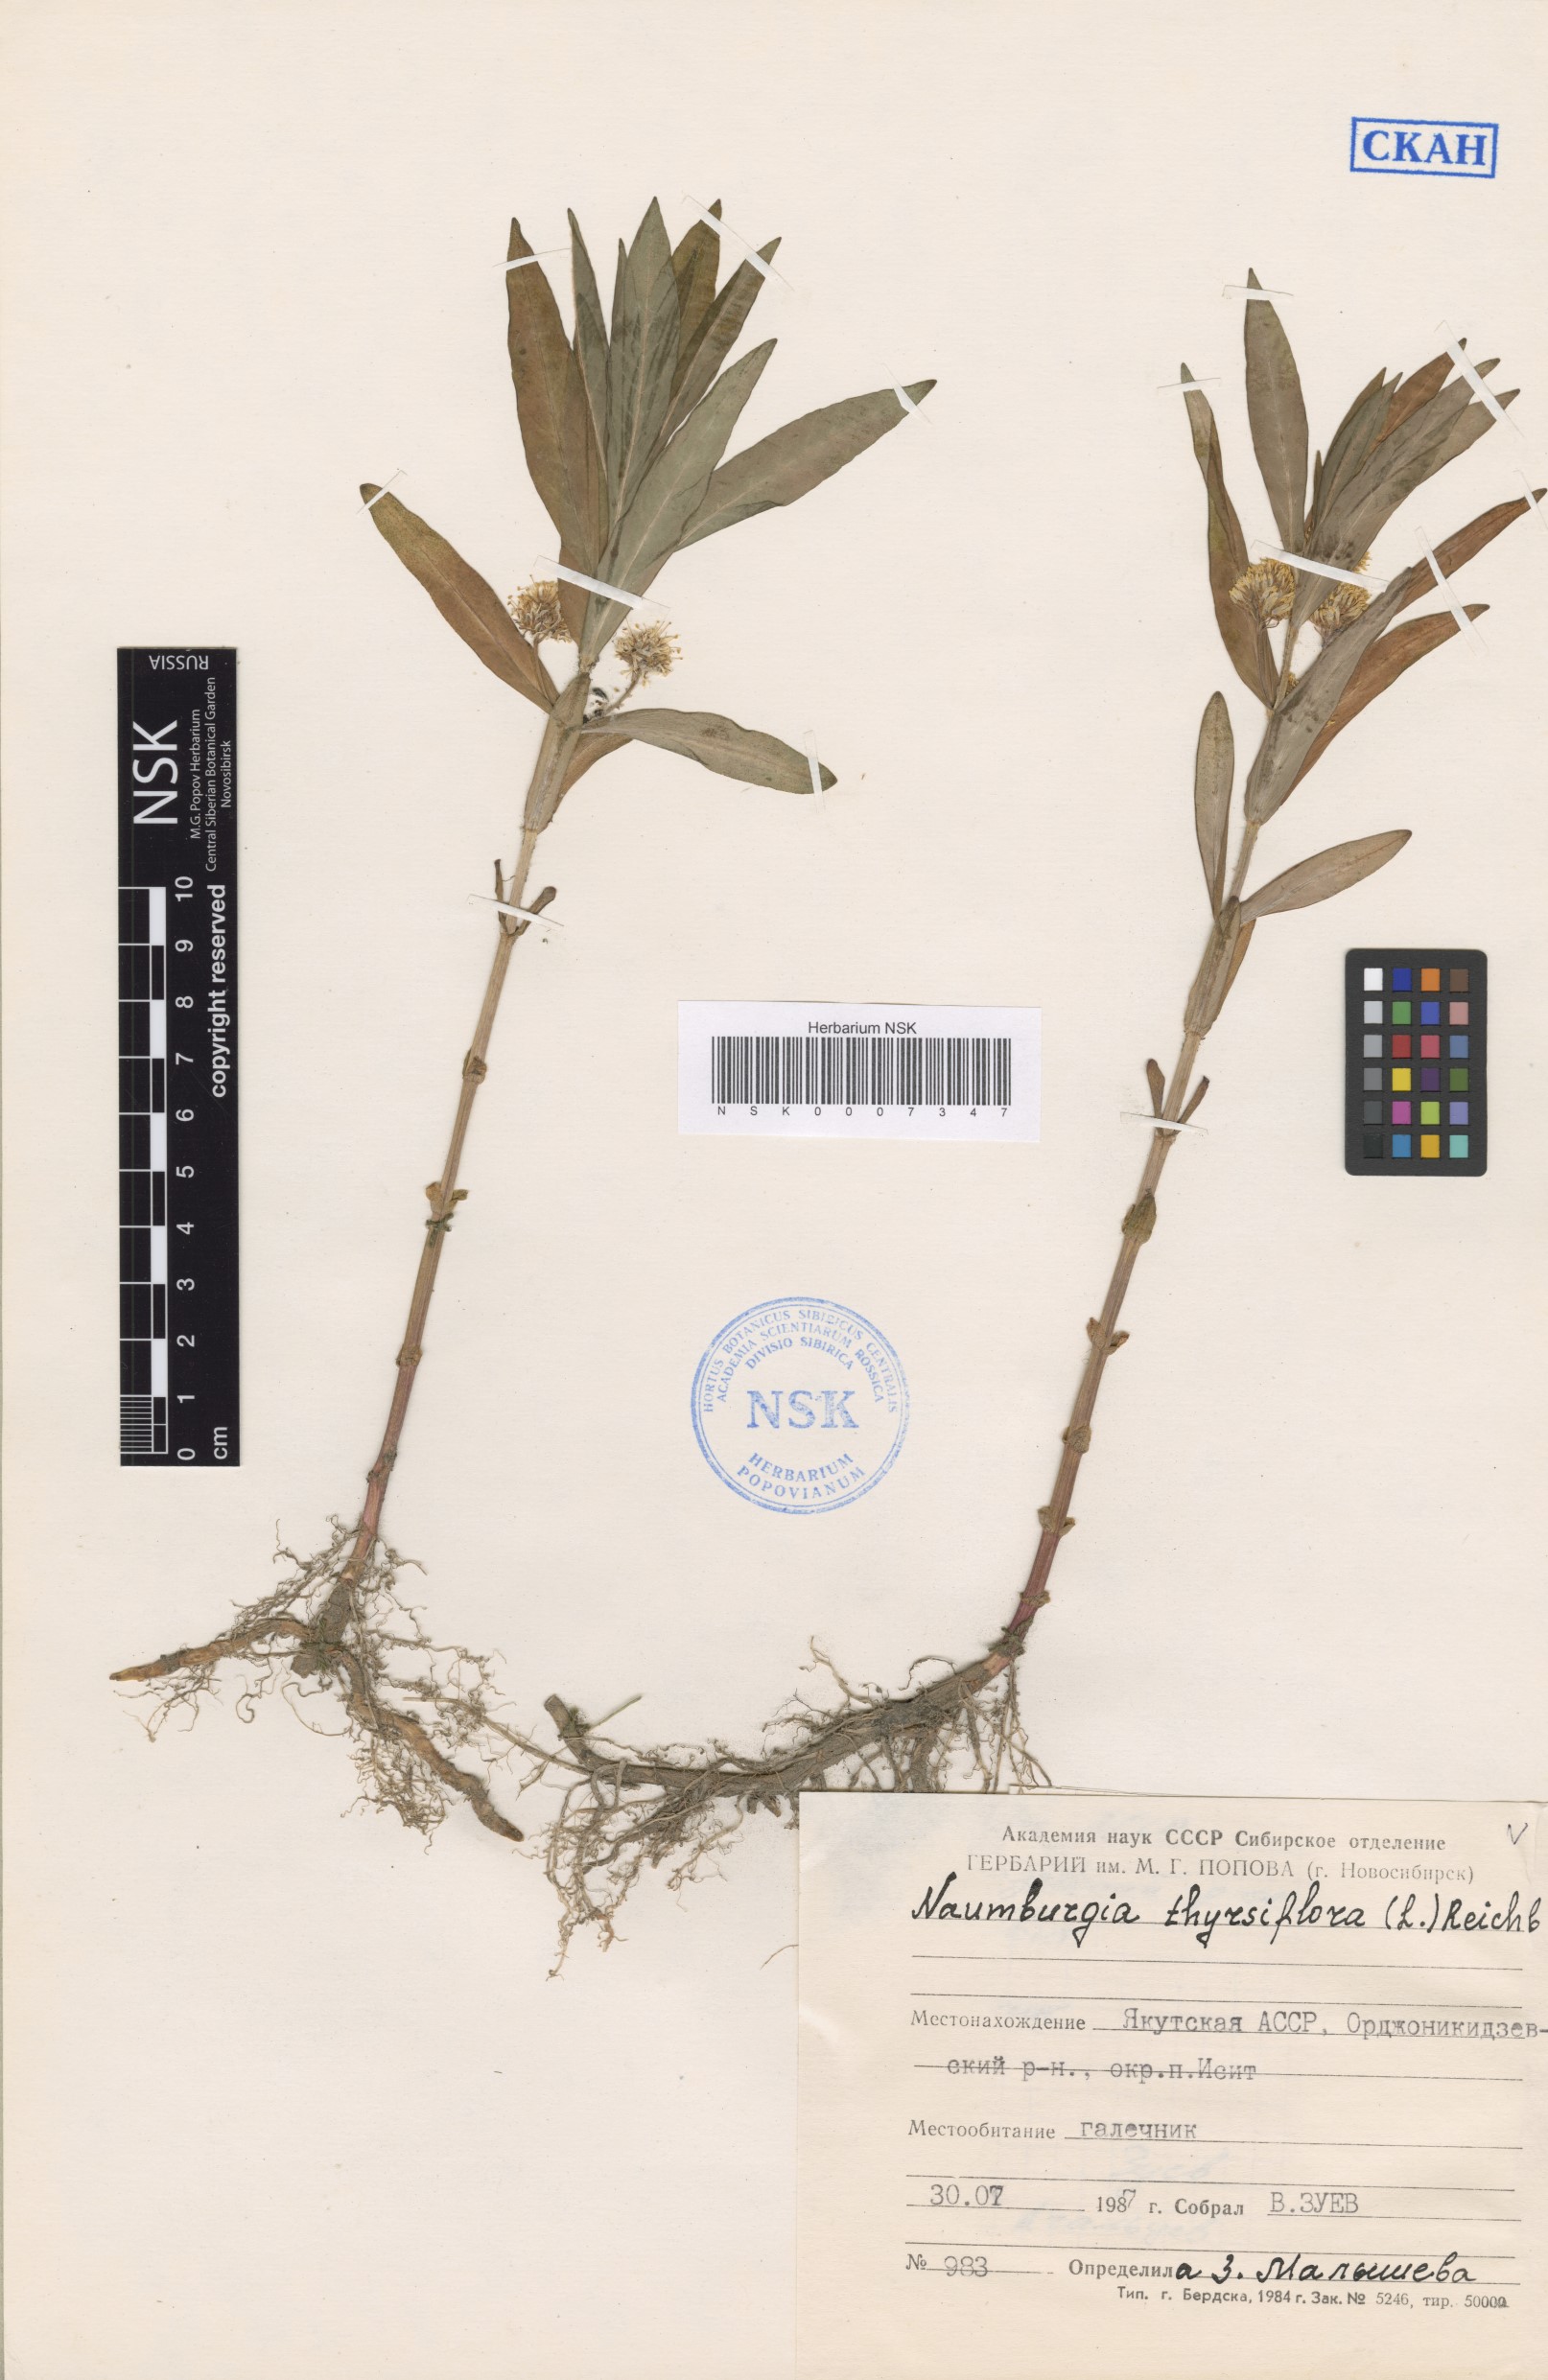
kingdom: Plantae
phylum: Tracheophyta
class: Magnoliopsida
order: Ericales
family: Primulaceae
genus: Lysimachia
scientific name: Lysimachia thyrsiflora
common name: Tufted loosestrife
